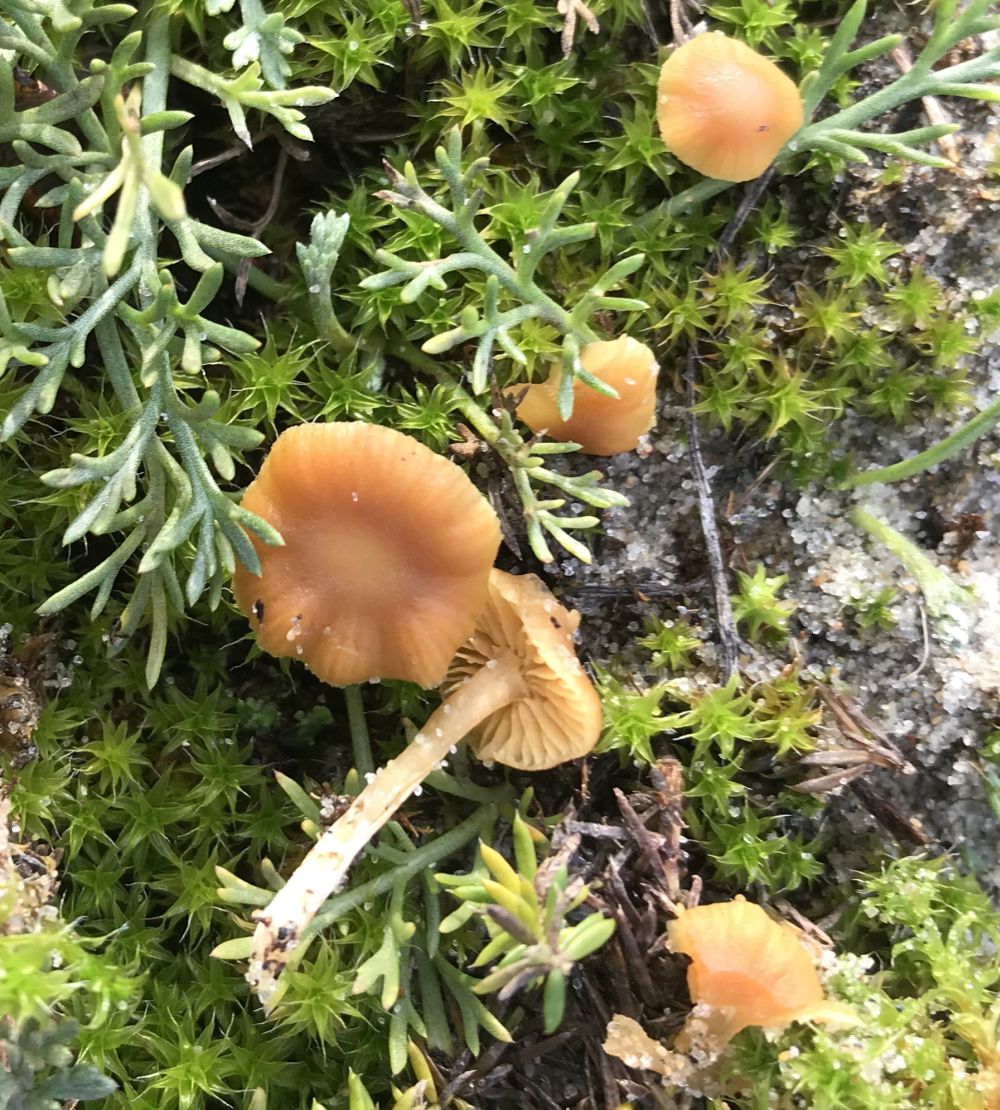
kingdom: Fungi
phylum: Basidiomycota
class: Agaricomycetes
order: Agaricales
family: Hymenogastraceae
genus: Galerina
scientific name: Galerina
